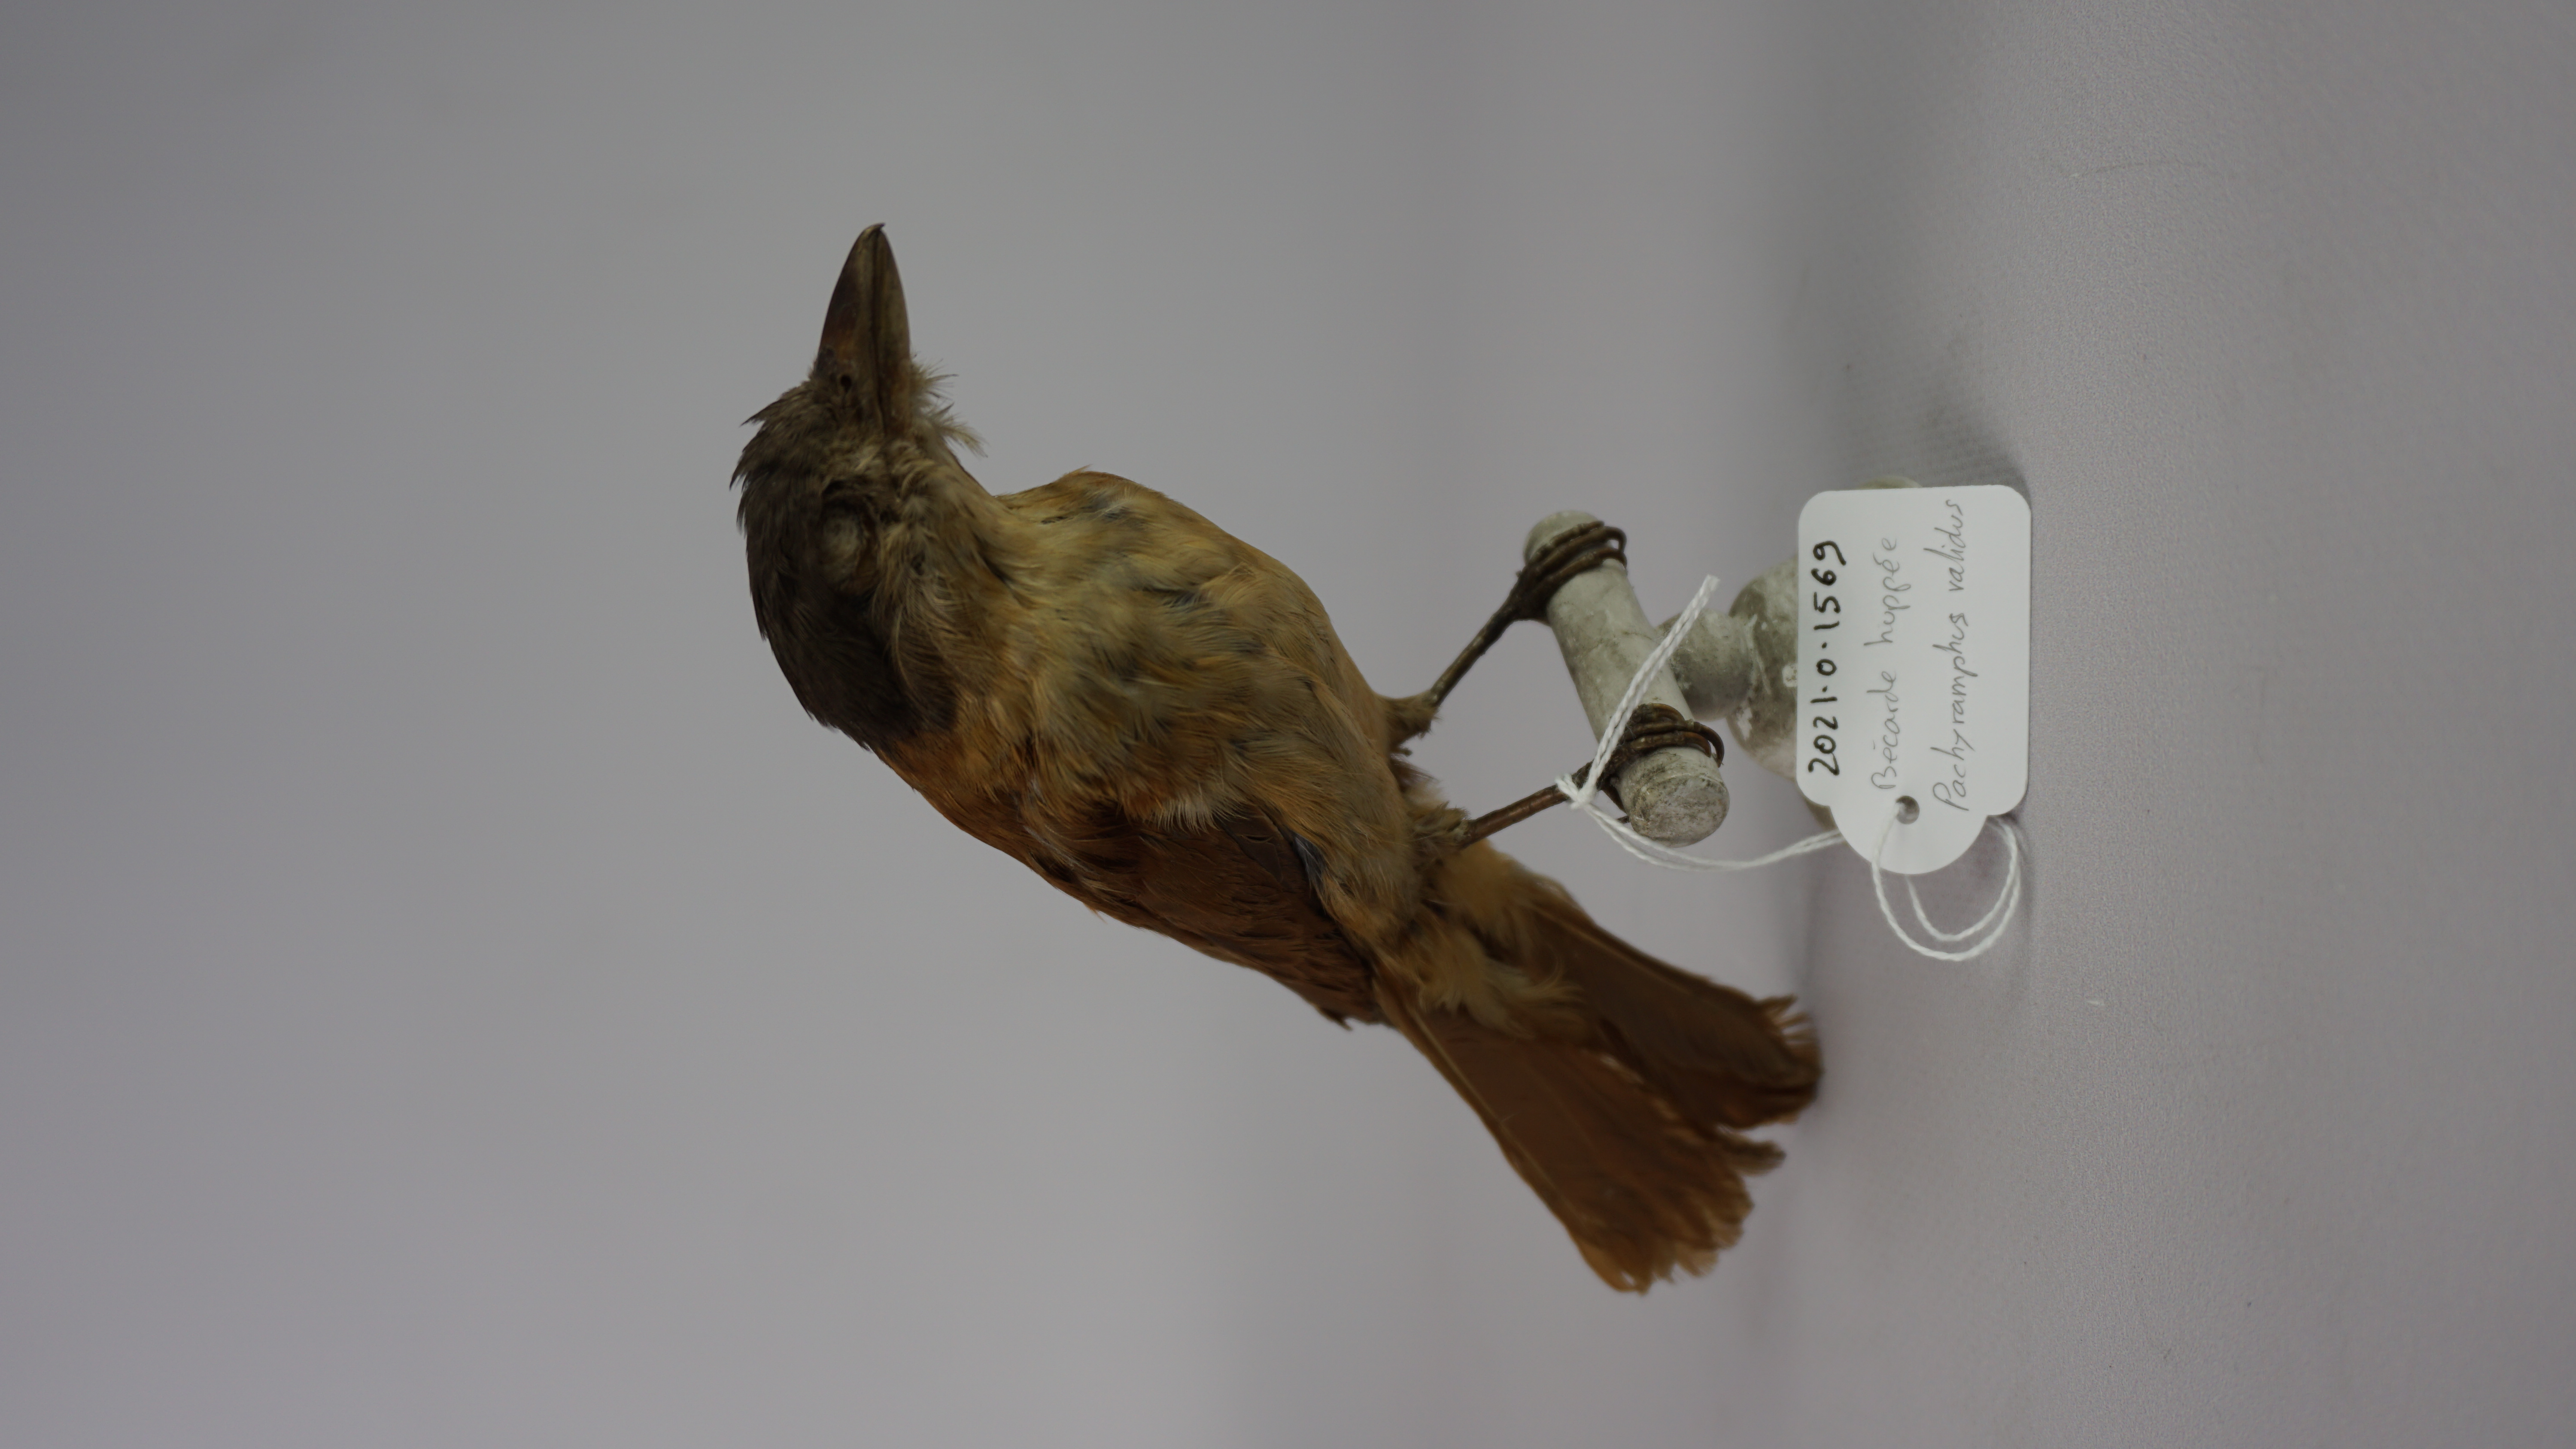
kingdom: Animalia
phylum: Chordata
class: Aves
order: Passeriformes
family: Cotingidae
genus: Pachyramphus
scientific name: Pachyramphus validus
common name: Crested becard
